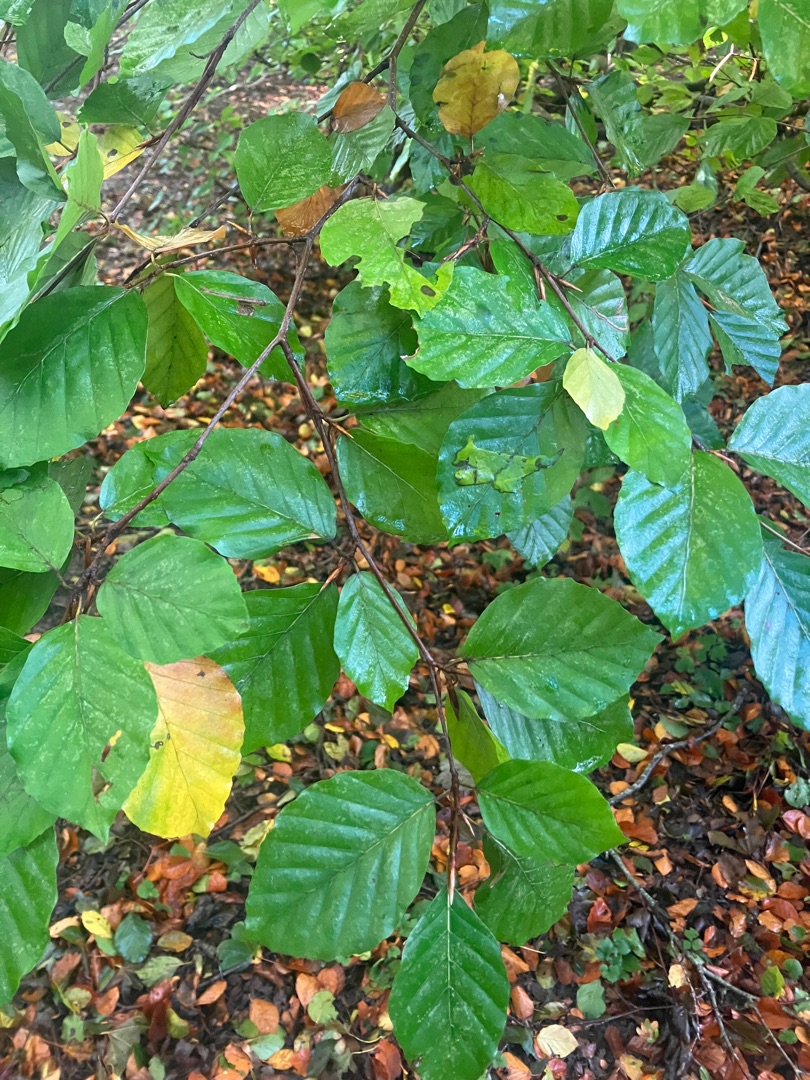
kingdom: Plantae
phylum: Tracheophyta
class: Magnoliopsida
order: Fagales
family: Fagaceae
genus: Fagus
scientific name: Fagus sylvatica
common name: Bøg
